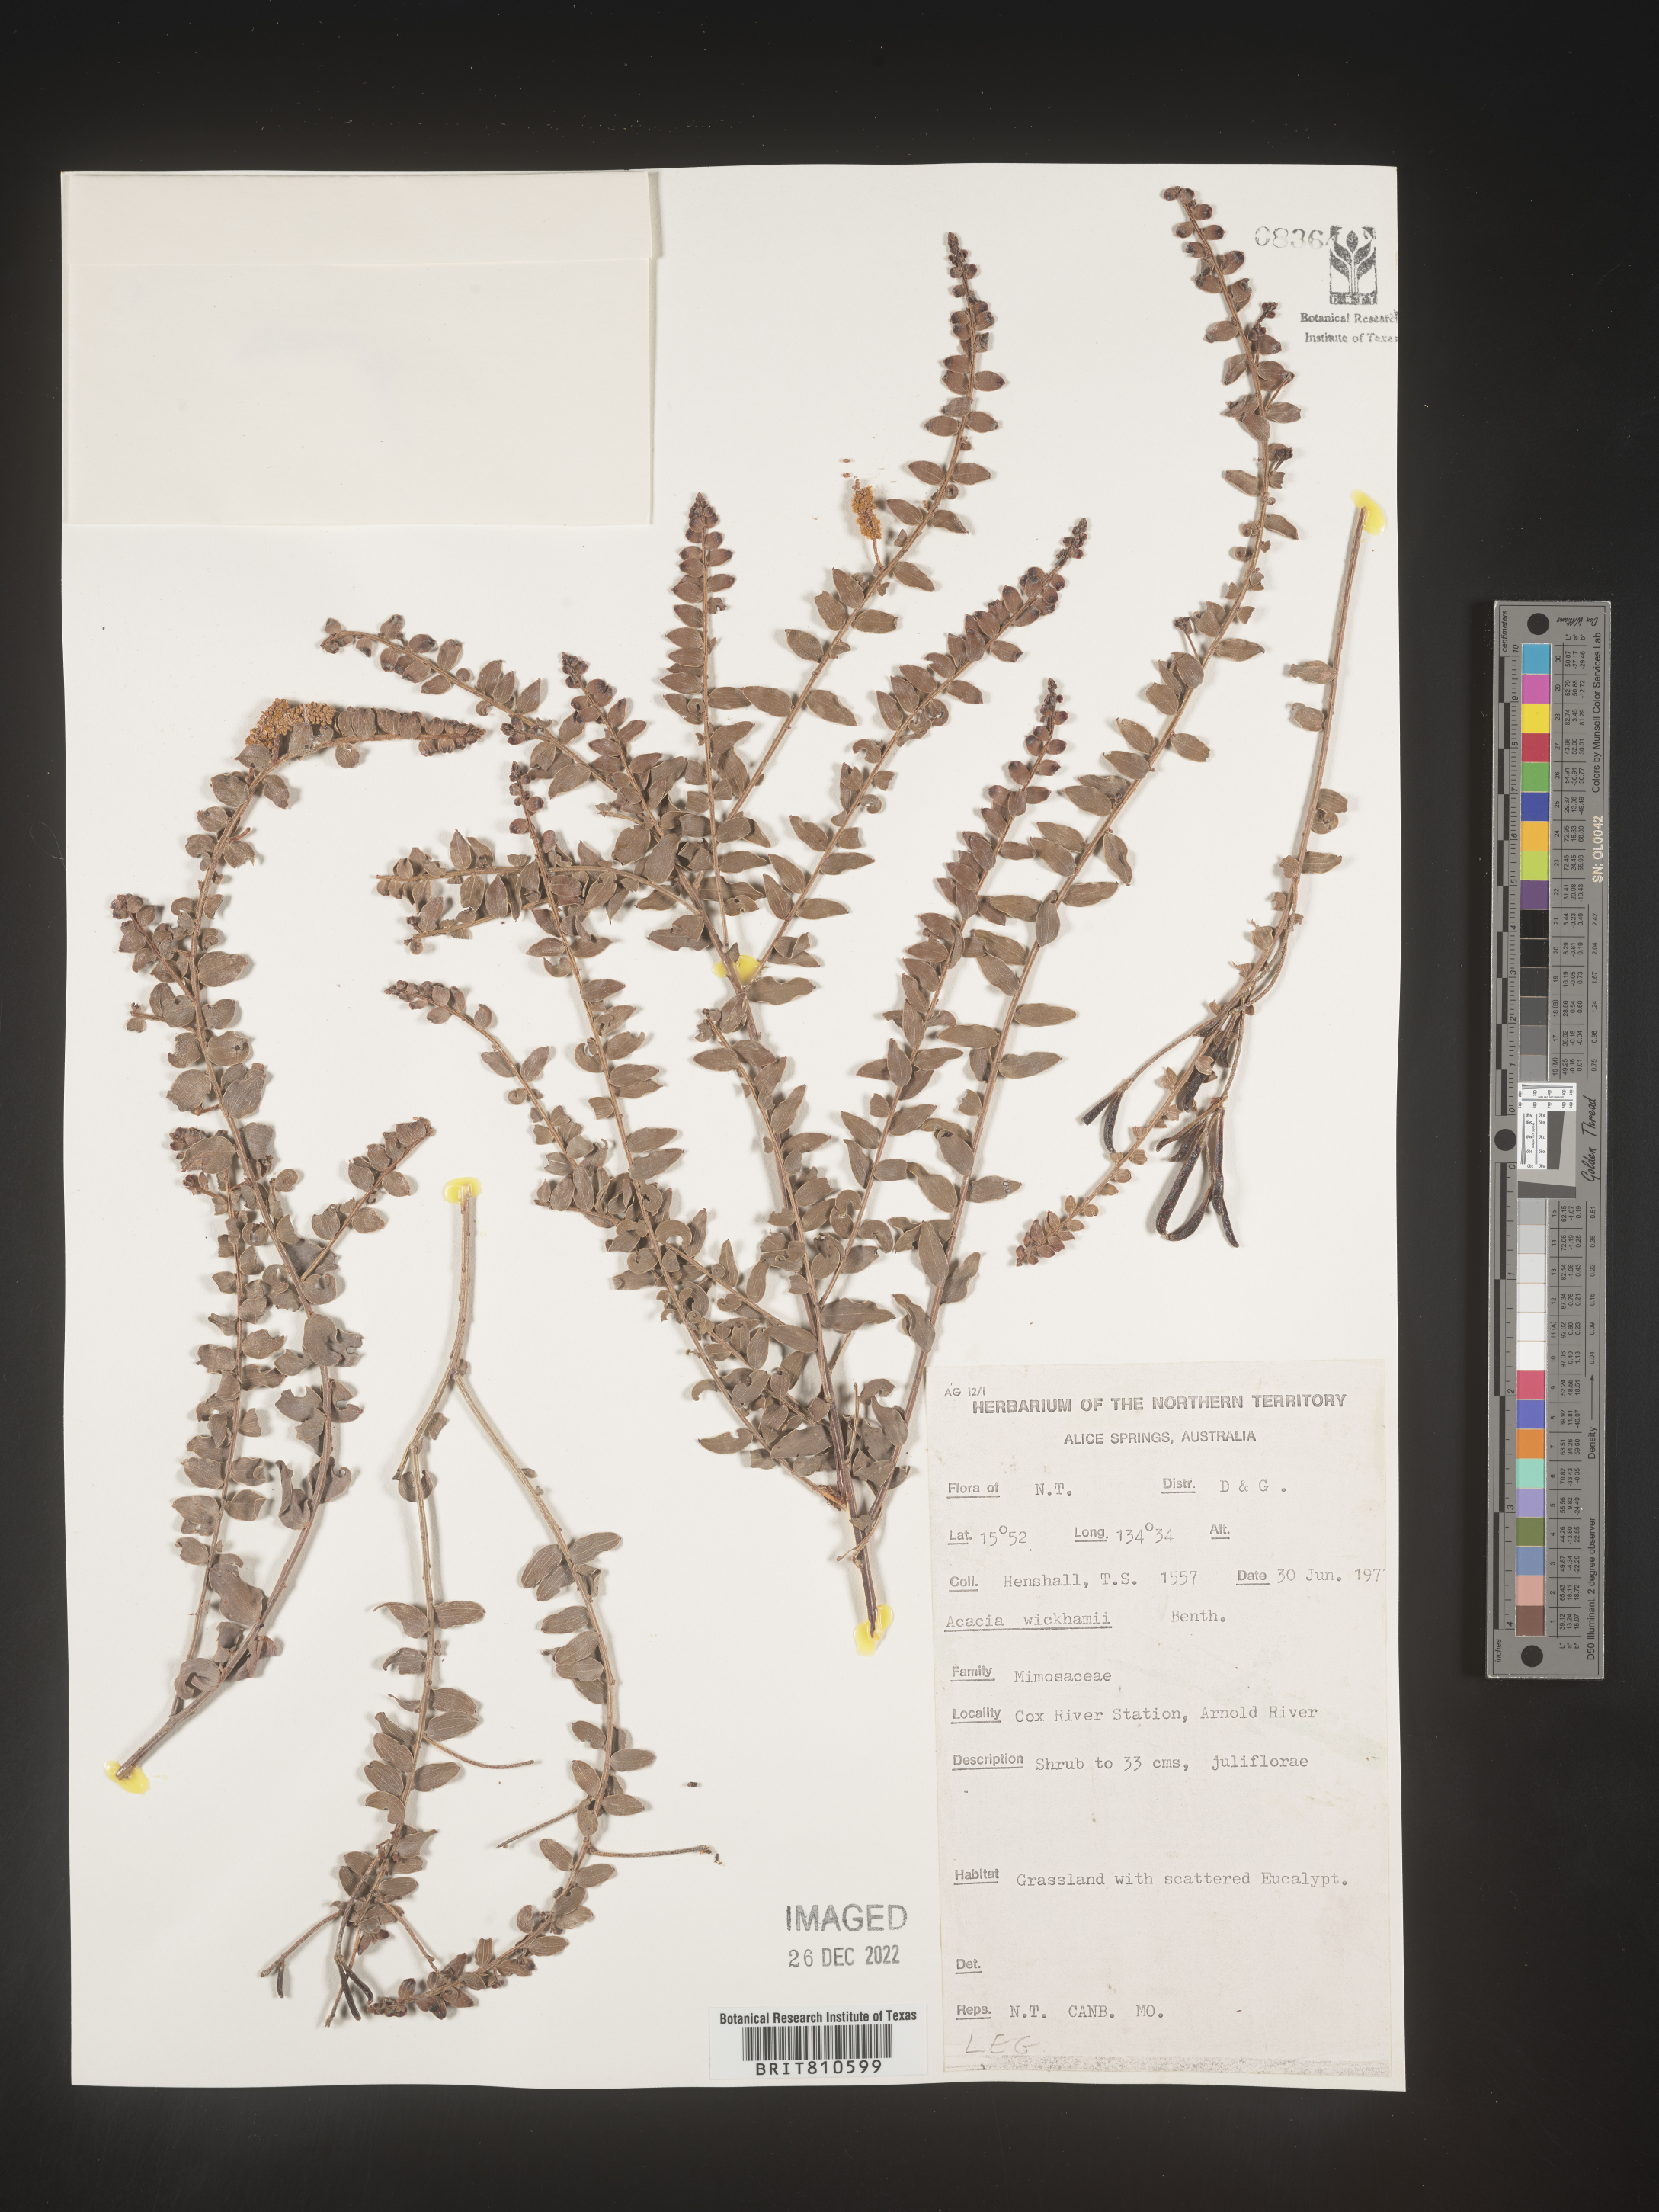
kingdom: Plantae
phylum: Tracheophyta
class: Magnoliopsida
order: Fabales
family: Fabaceae
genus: Acacia
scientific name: Acacia
